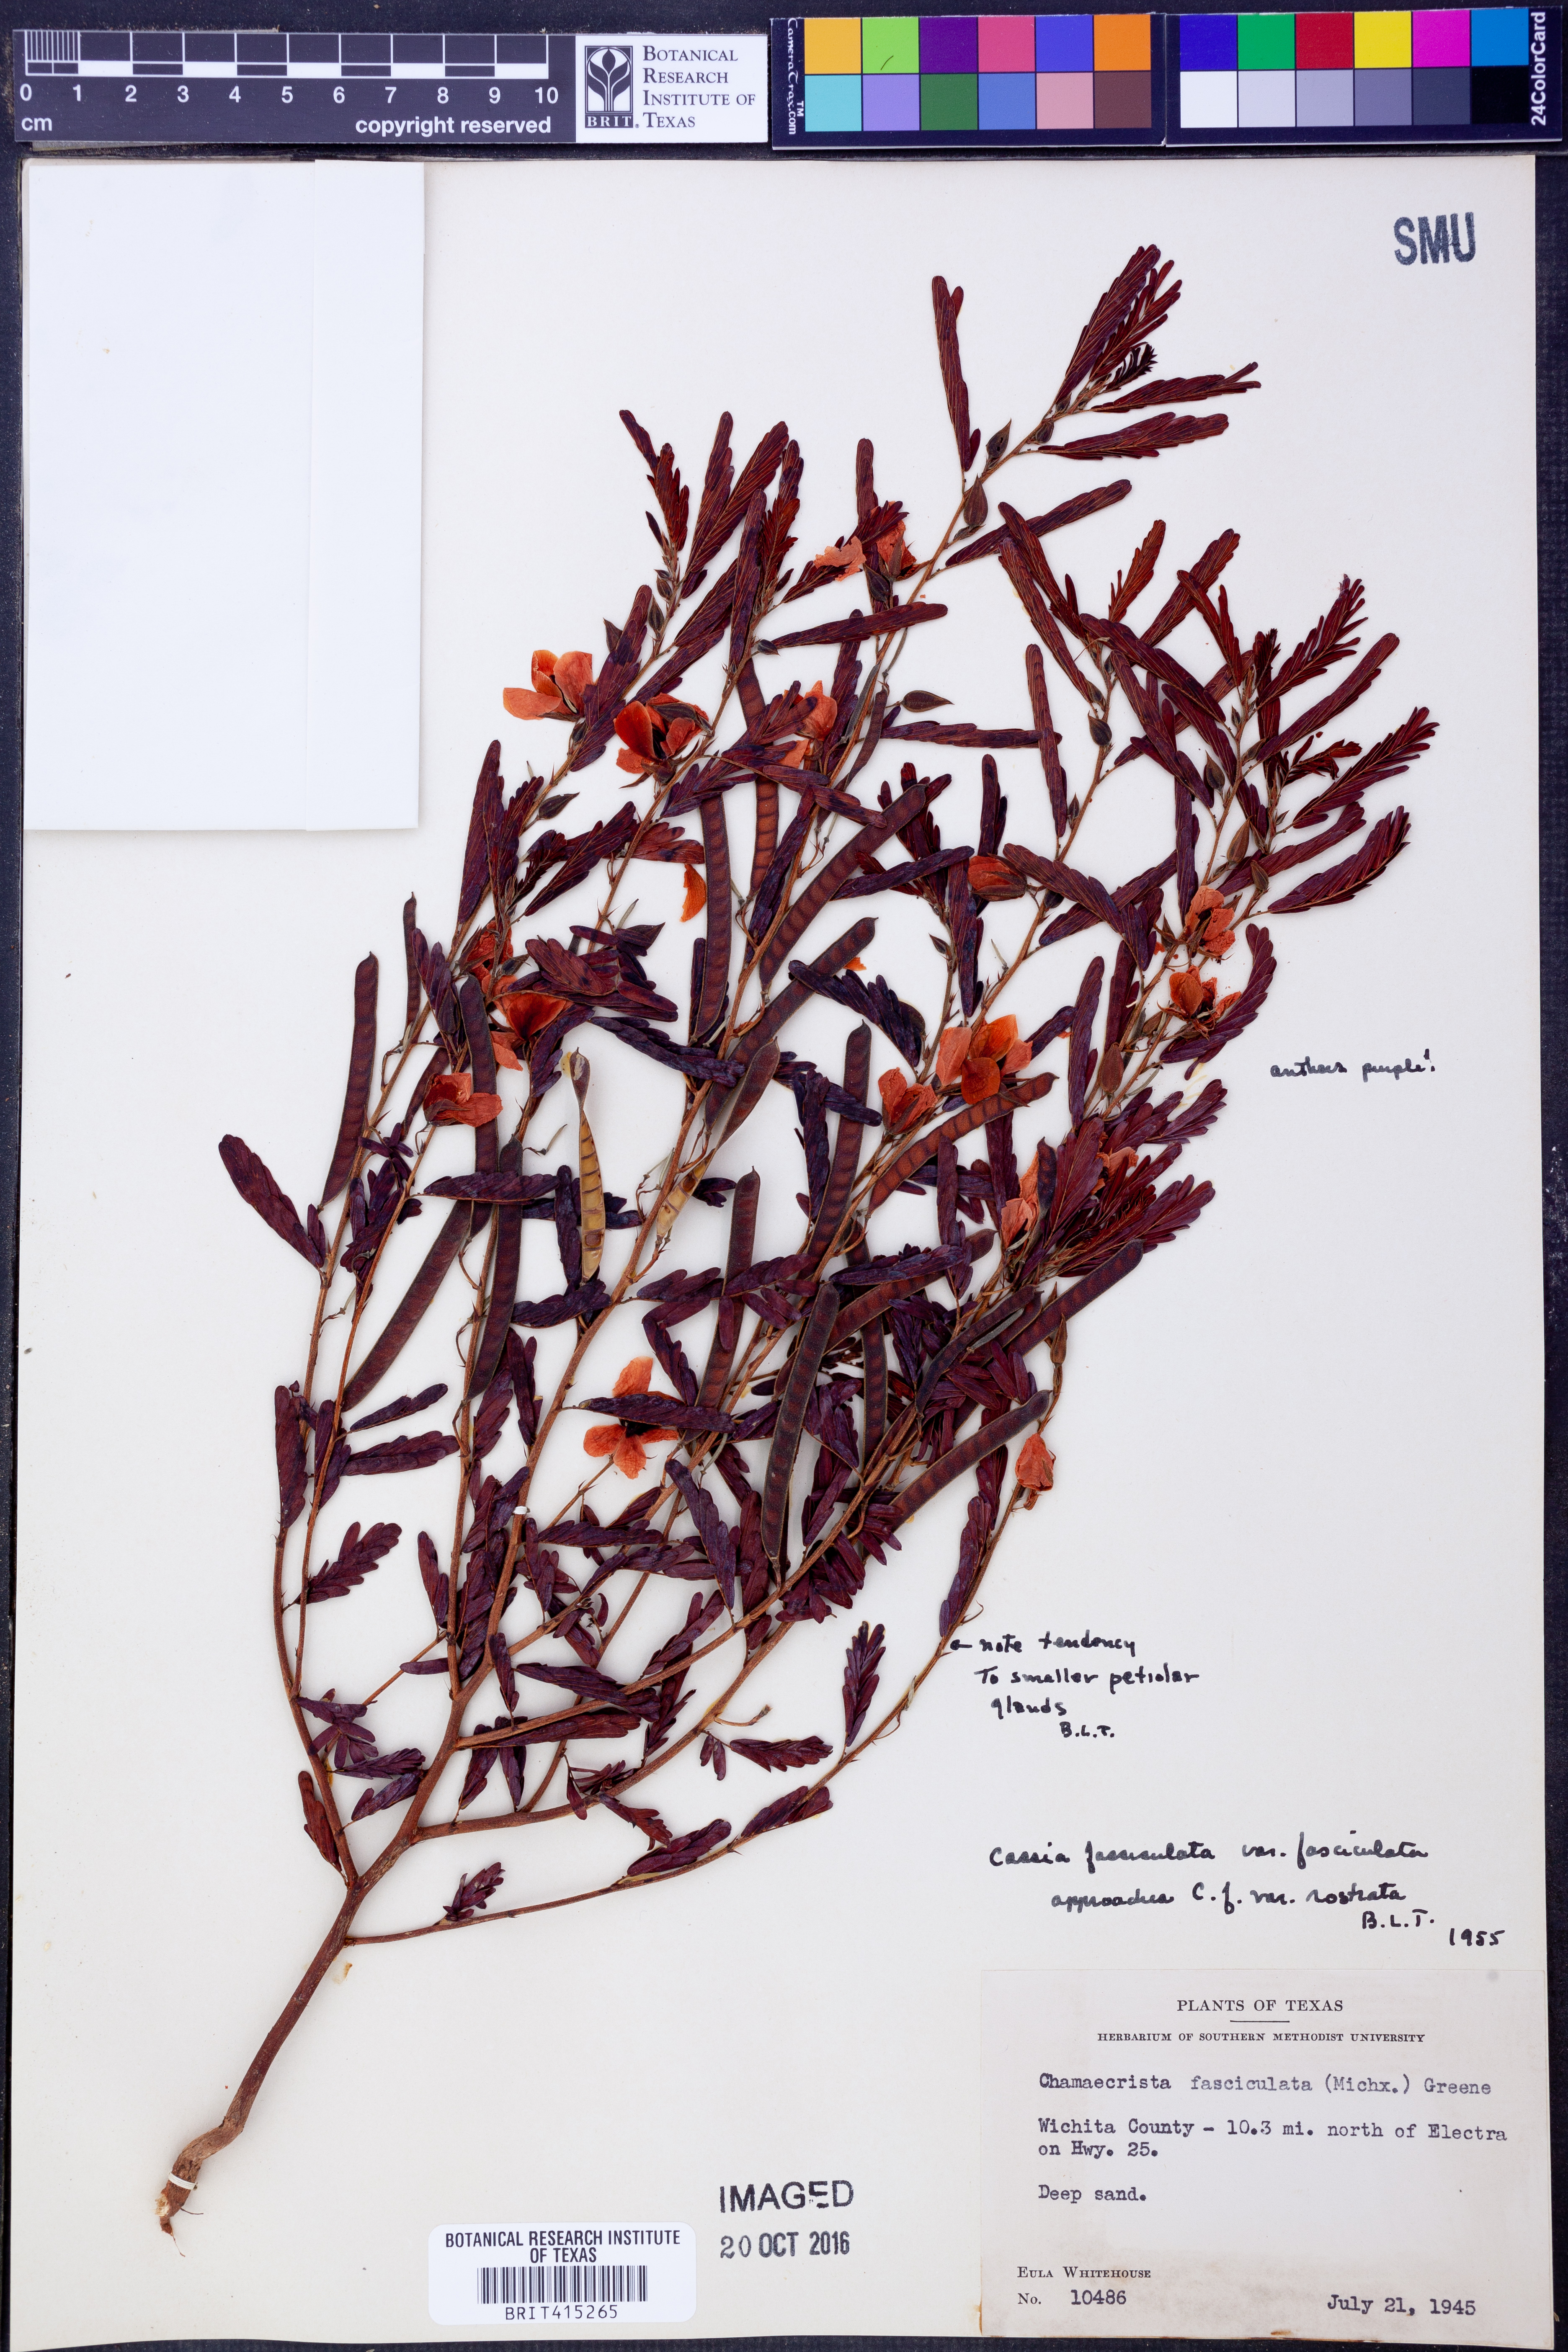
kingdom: Plantae
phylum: Tracheophyta
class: Magnoliopsida
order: Fabales
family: Fabaceae
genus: Chamaecrista
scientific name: Chamaecrista fasciculata
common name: Golden cassia
